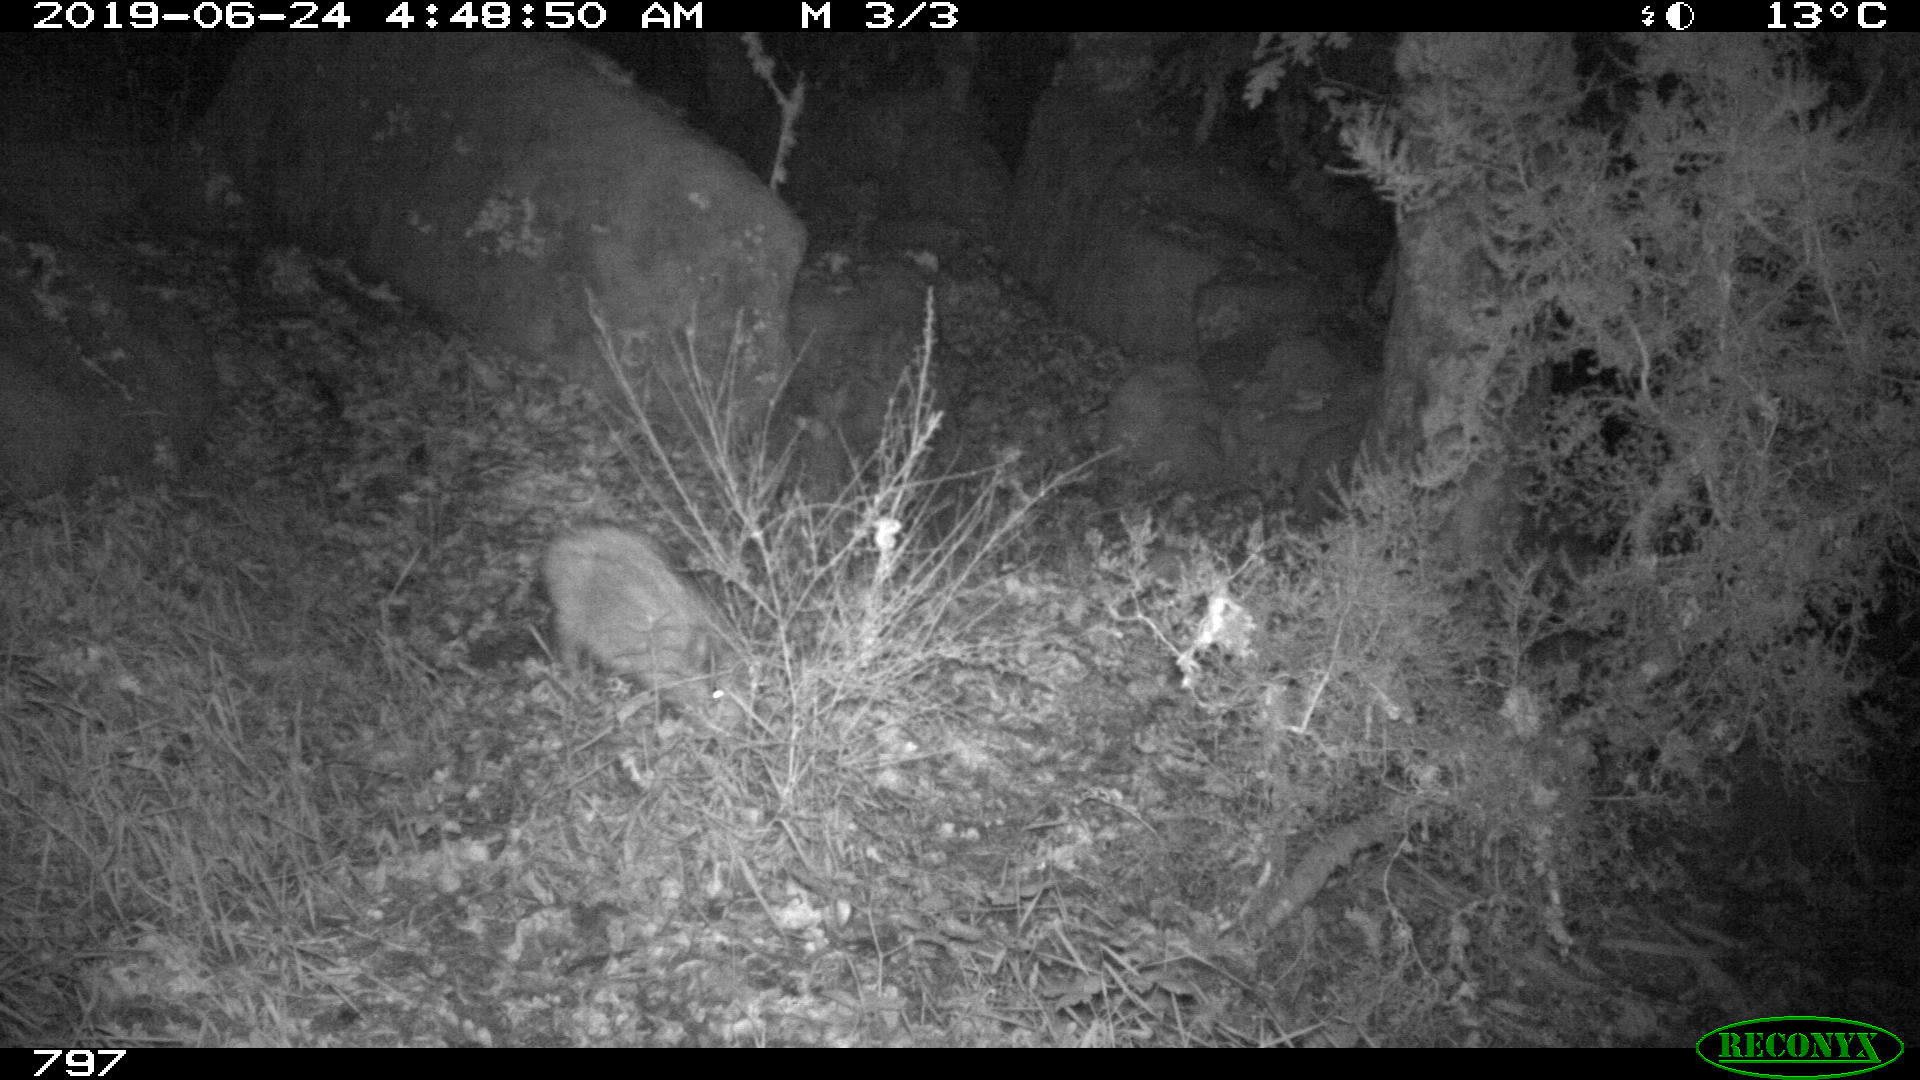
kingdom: Animalia
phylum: Chordata
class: Mammalia
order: Artiodactyla
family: Suidae
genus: Sus
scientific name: Sus scrofa
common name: Wild boar
